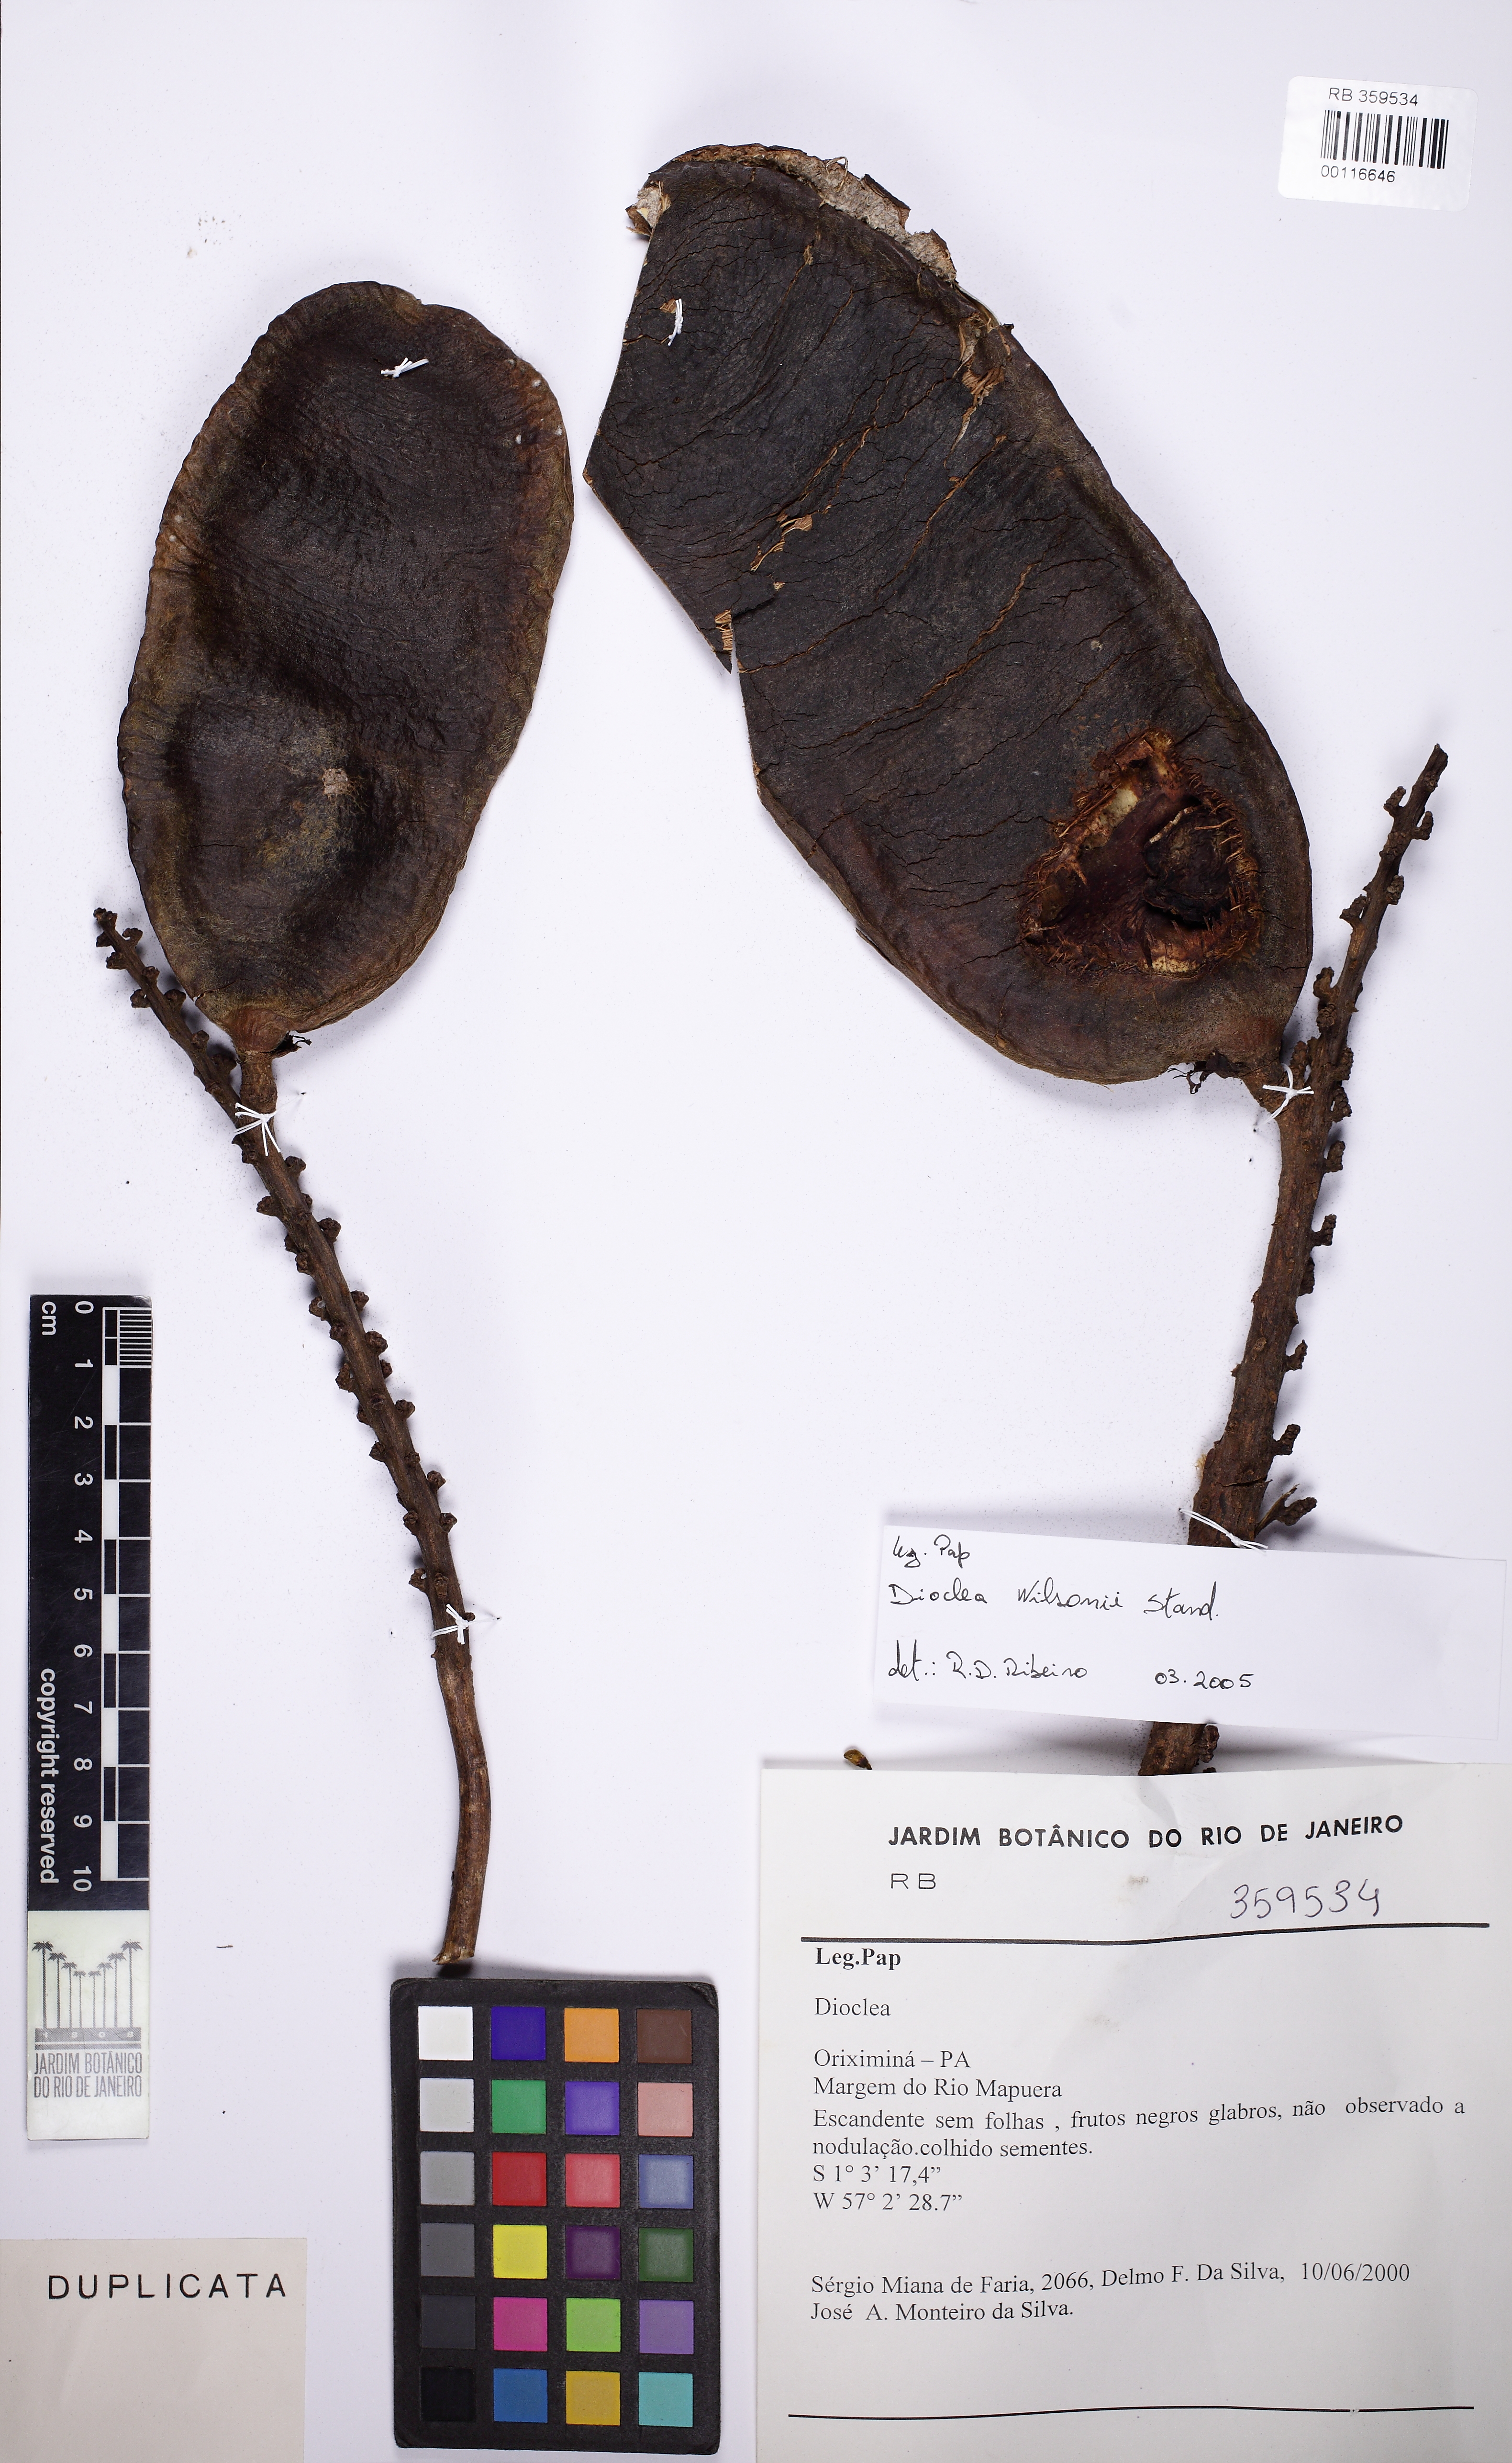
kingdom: Plantae
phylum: Tracheophyta
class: Magnoliopsida
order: Fabales
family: Fabaceae
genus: Macropsychanthus
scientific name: Macropsychanthus wilsonii
